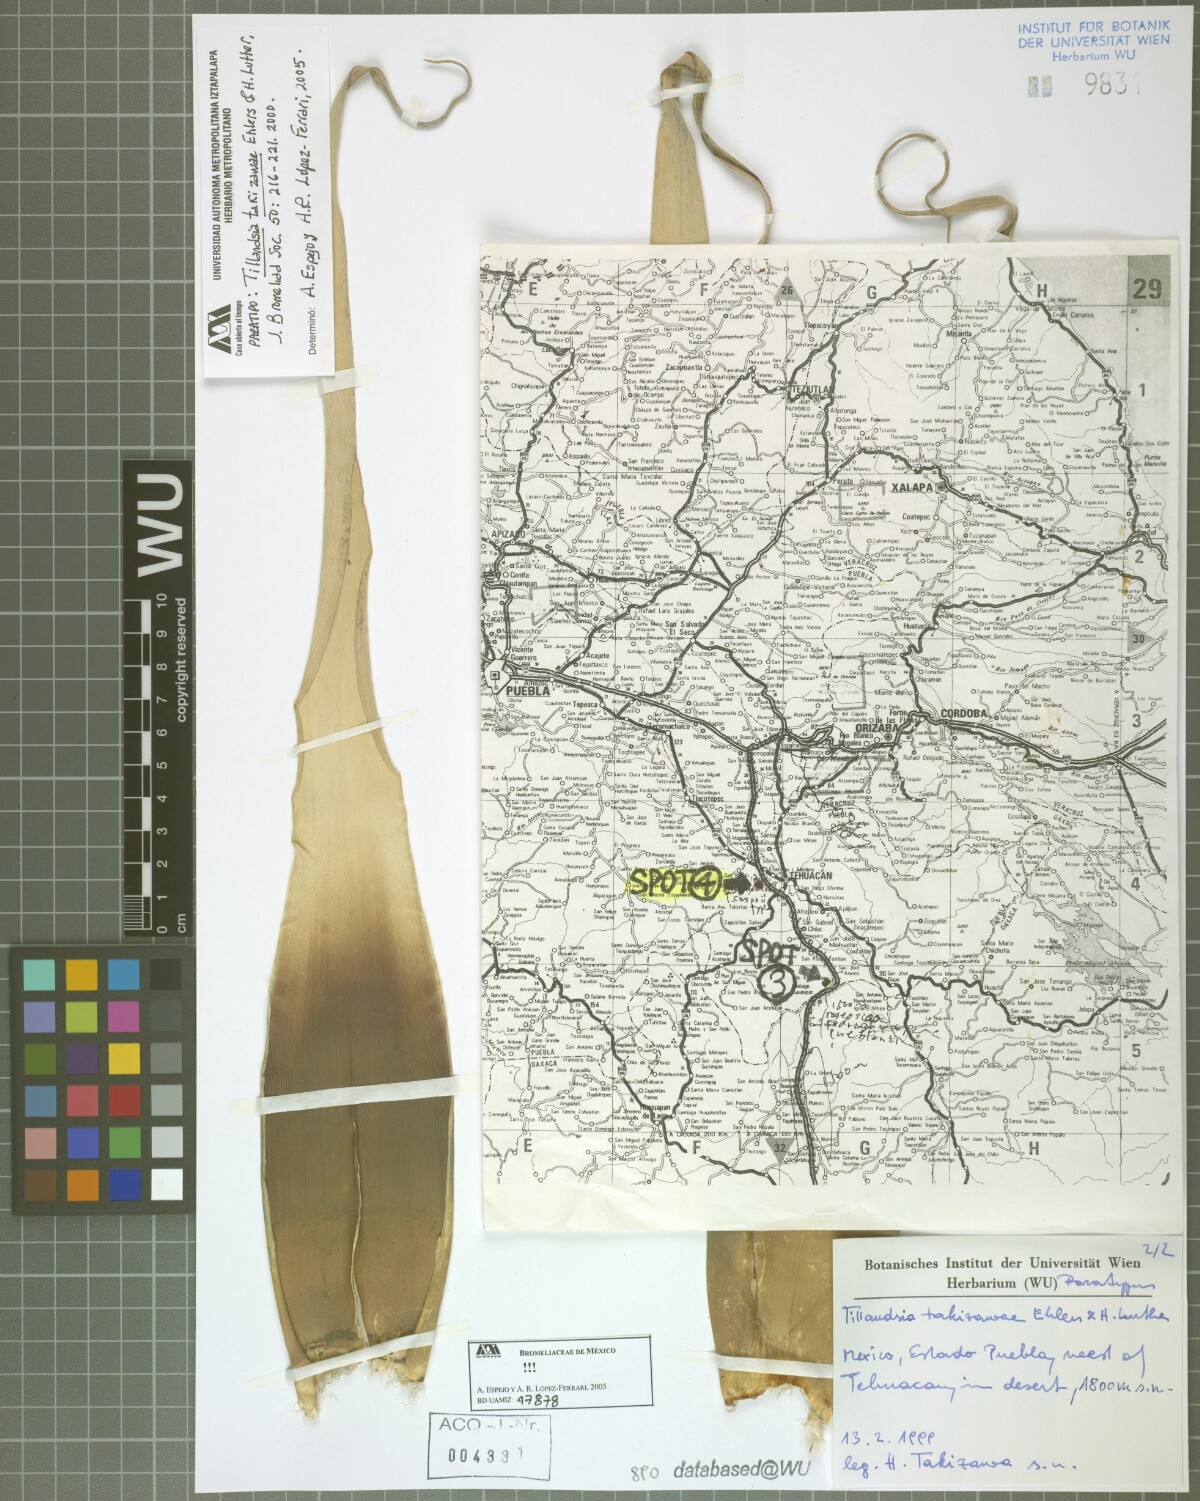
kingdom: Plantae
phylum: Tracheophyta
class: Liliopsida
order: Poales
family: Bromeliaceae
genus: Tillandsia
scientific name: Tillandsia takizawae
